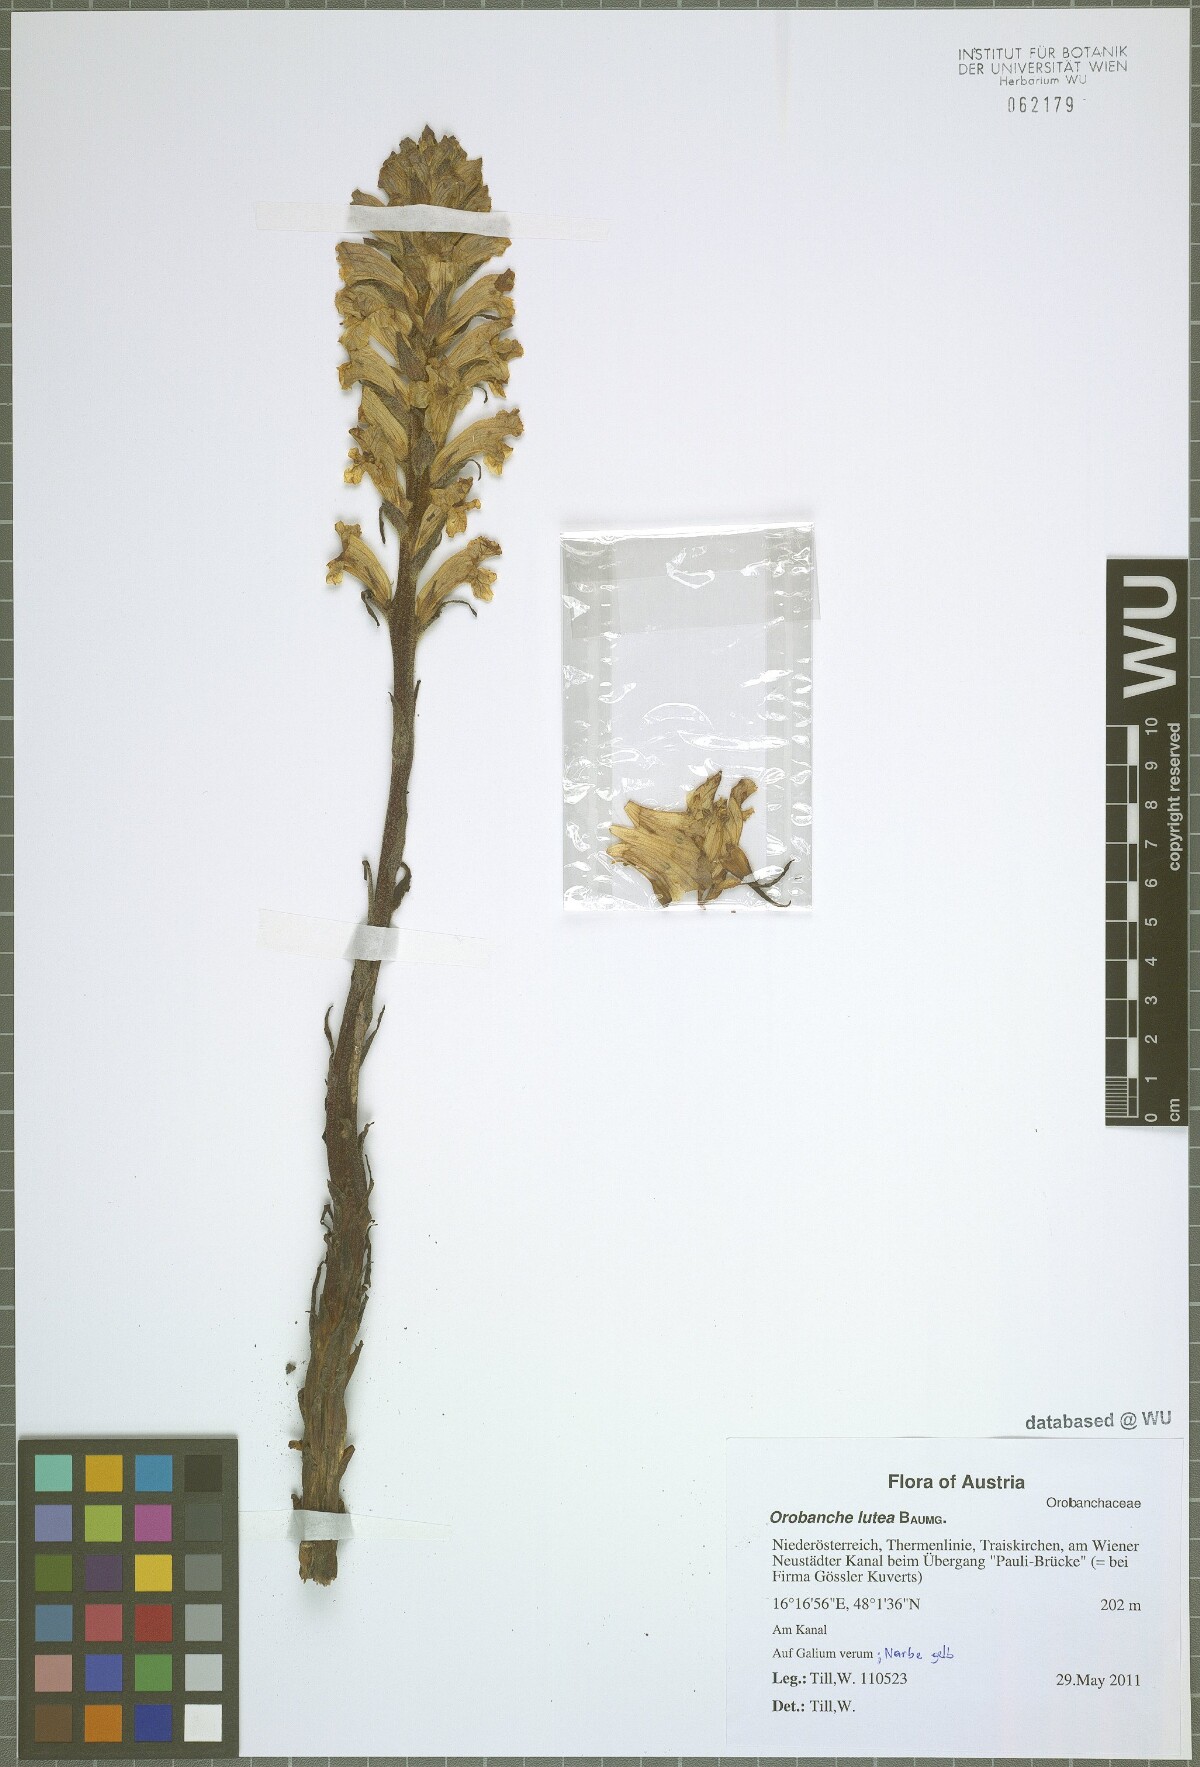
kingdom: Plantae
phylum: Tracheophyta
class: Magnoliopsida
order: Lamiales
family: Orobanchaceae
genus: Orobanche
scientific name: Orobanche lutea
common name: Yellow broomrape
